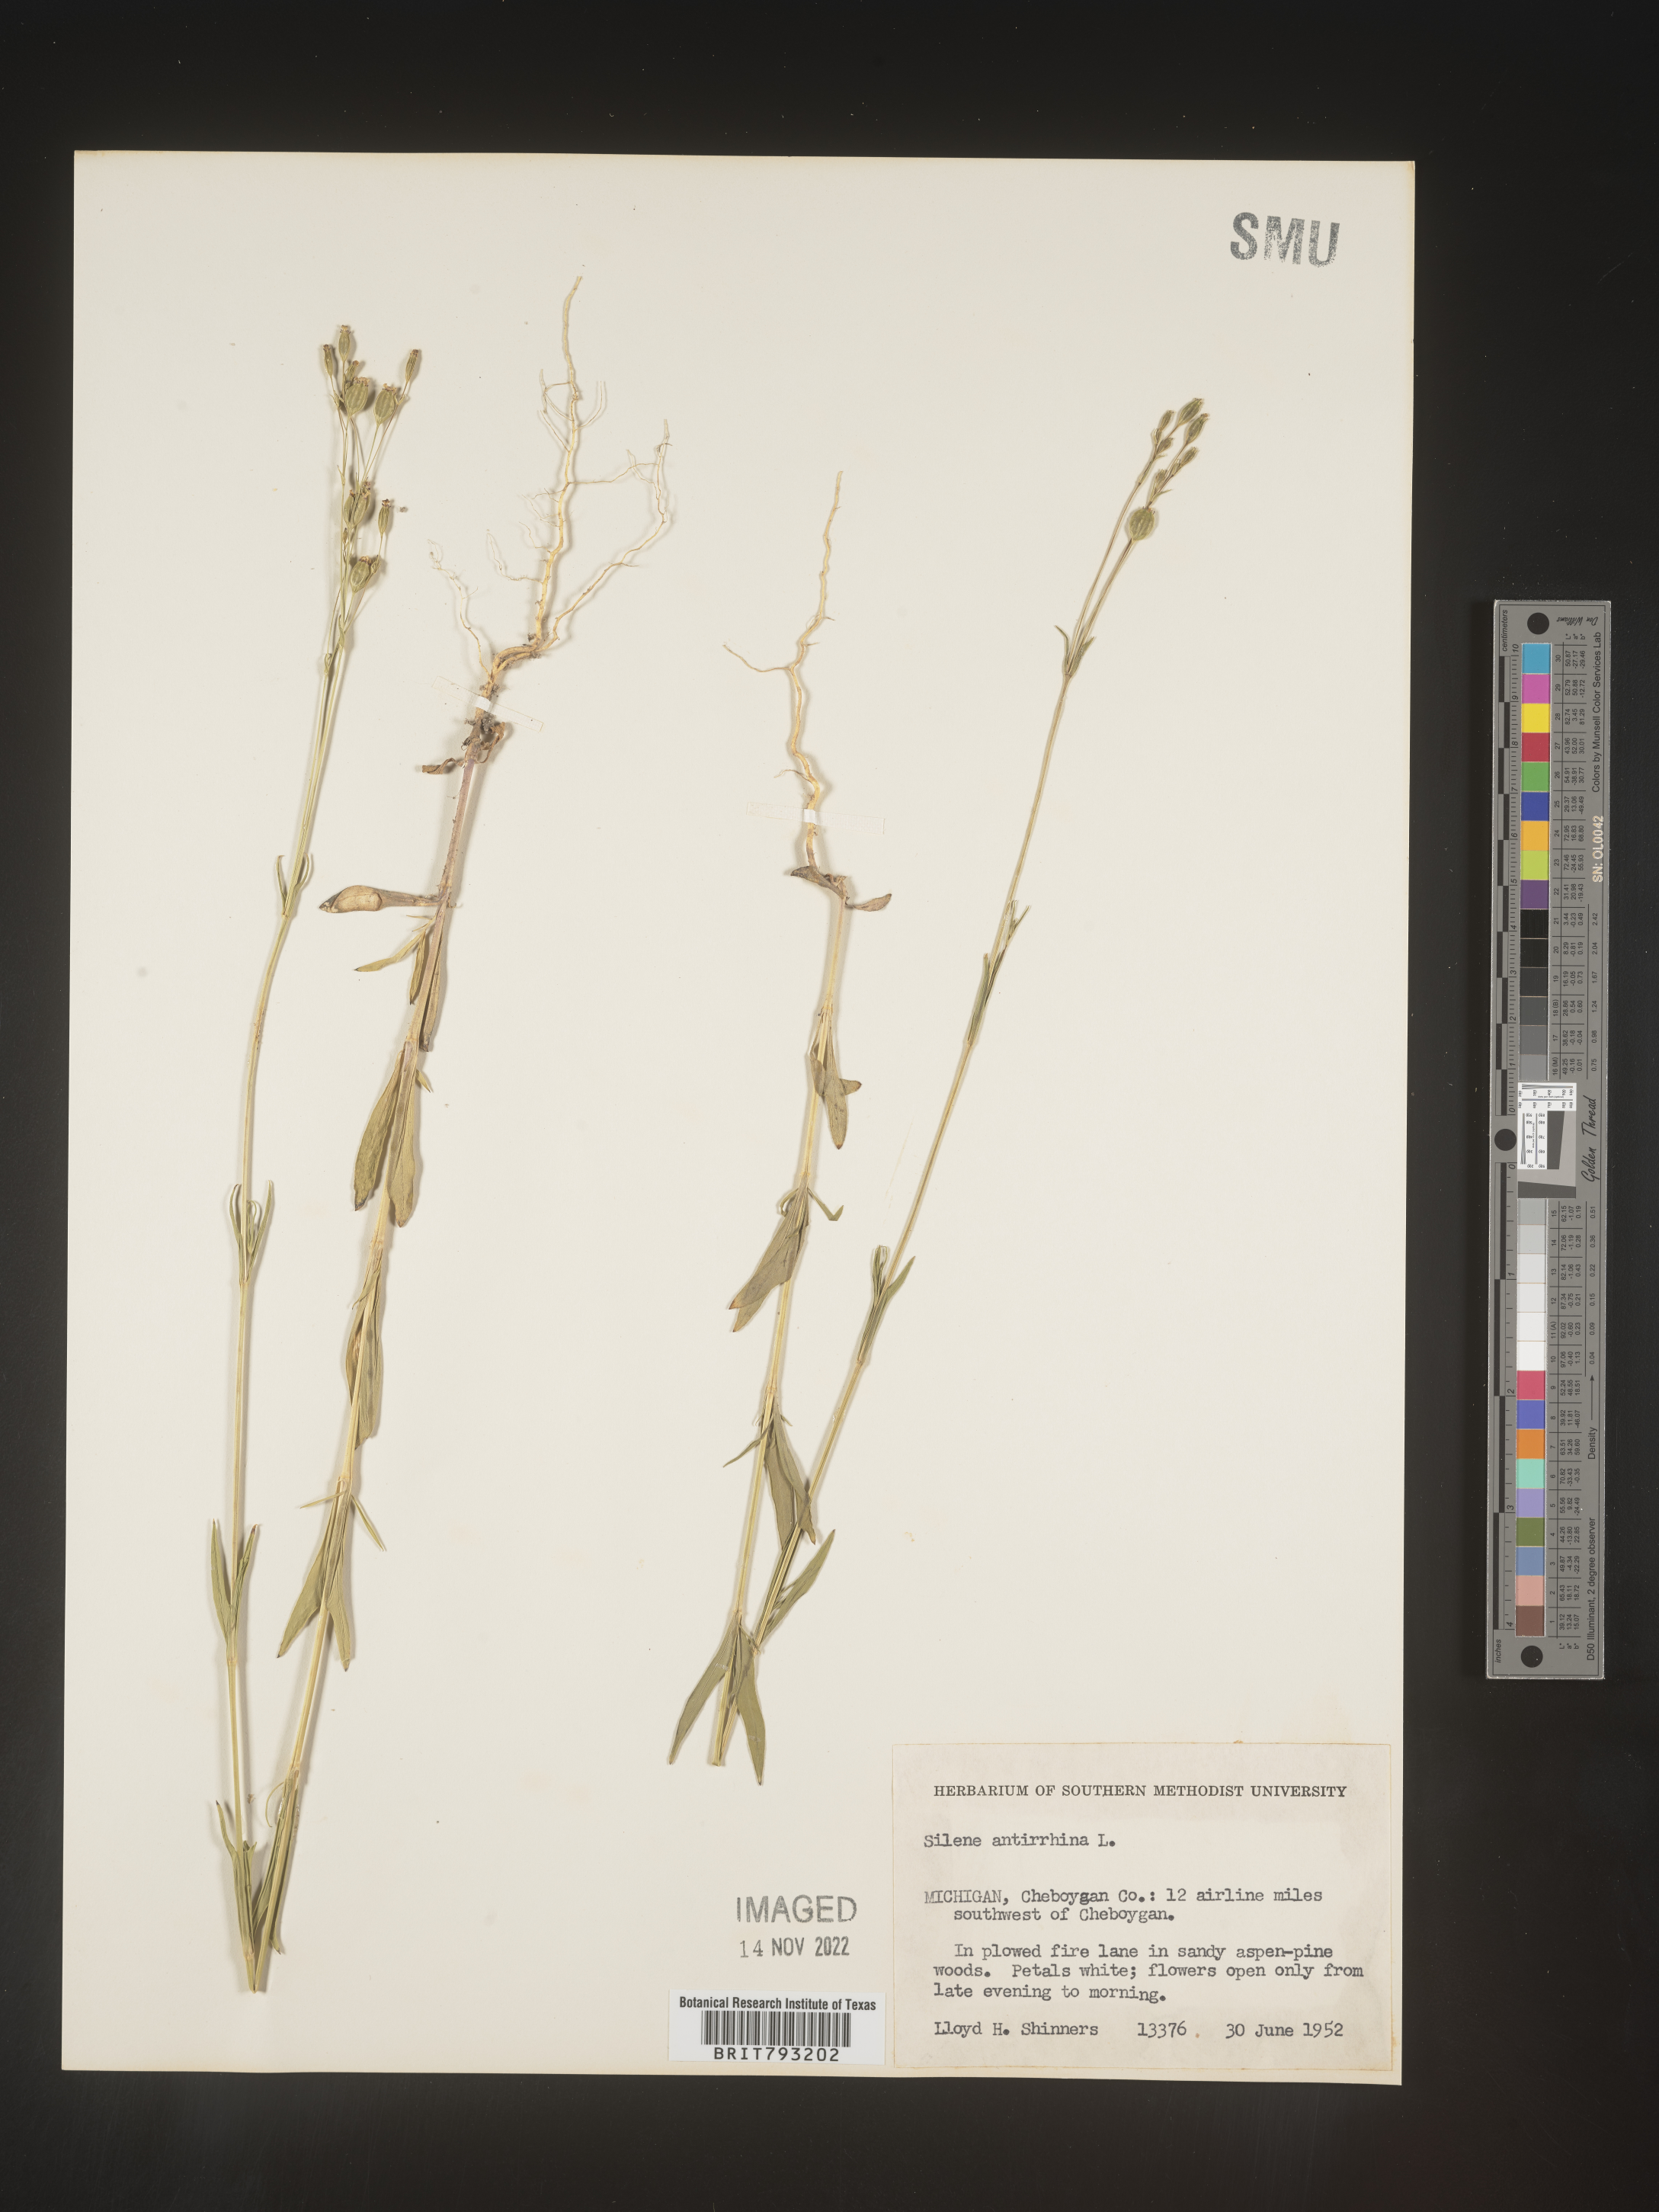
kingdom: Plantae
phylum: Tracheophyta
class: Magnoliopsida
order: Caryophyllales
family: Caryophyllaceae
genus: Silene
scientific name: Silene antirrhina
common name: Sleepy catchfly
